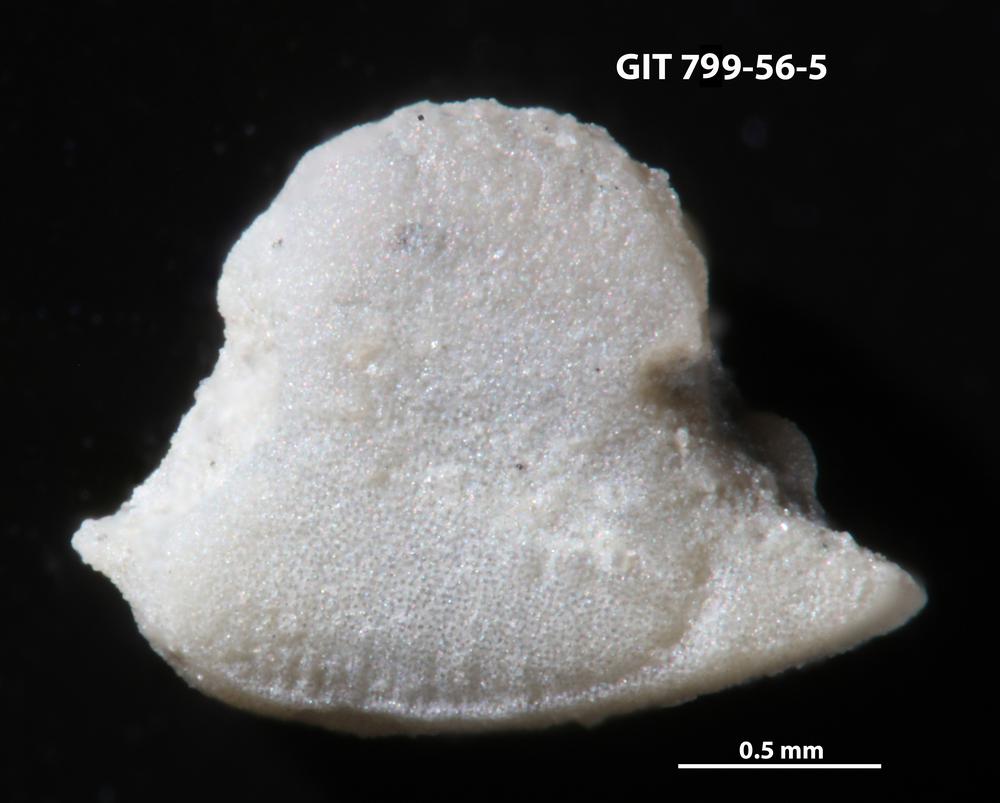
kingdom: Animalia
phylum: Echinodermata
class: Crinoidea
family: Cyclocystoididae
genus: Polytryphocycloides
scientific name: Polytryphocycloides Cyclocystoides lindstroemi
